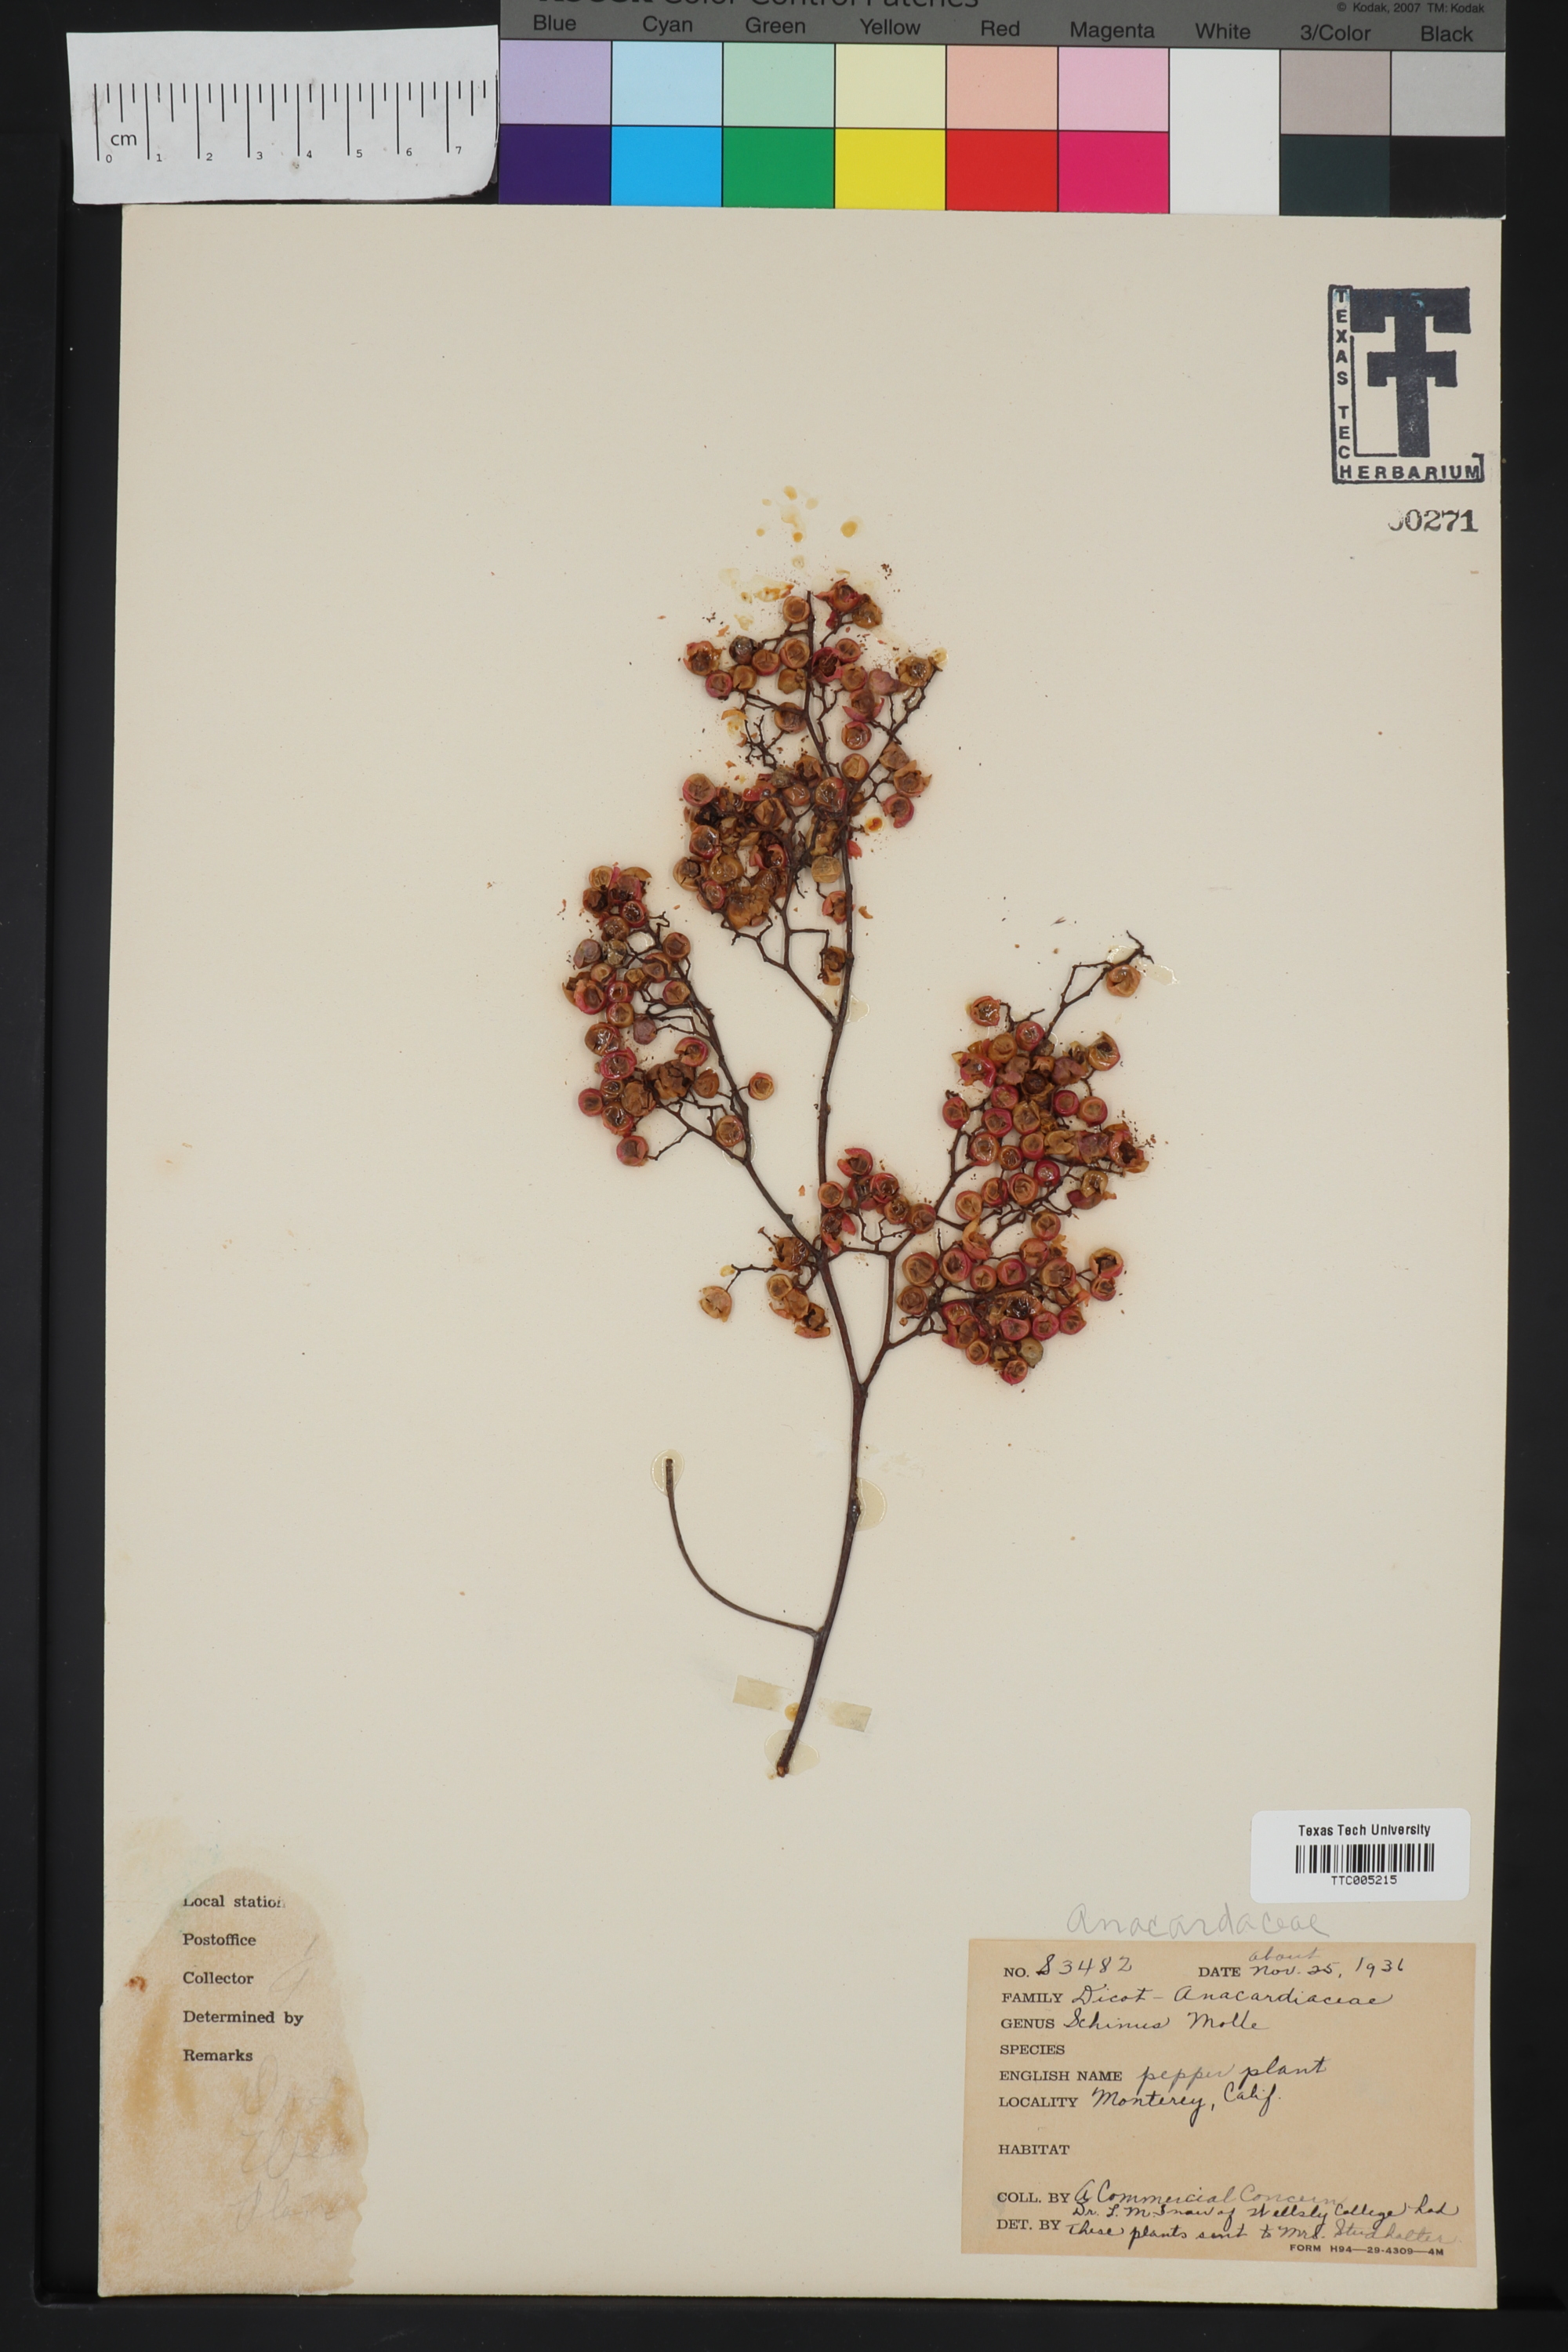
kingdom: Plantae
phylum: Tracheophyta
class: Magnoliopsida
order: Sapindales
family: Anacardiaceae
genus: Schinus
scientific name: Schinus molle
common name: Peruvian peppertree
